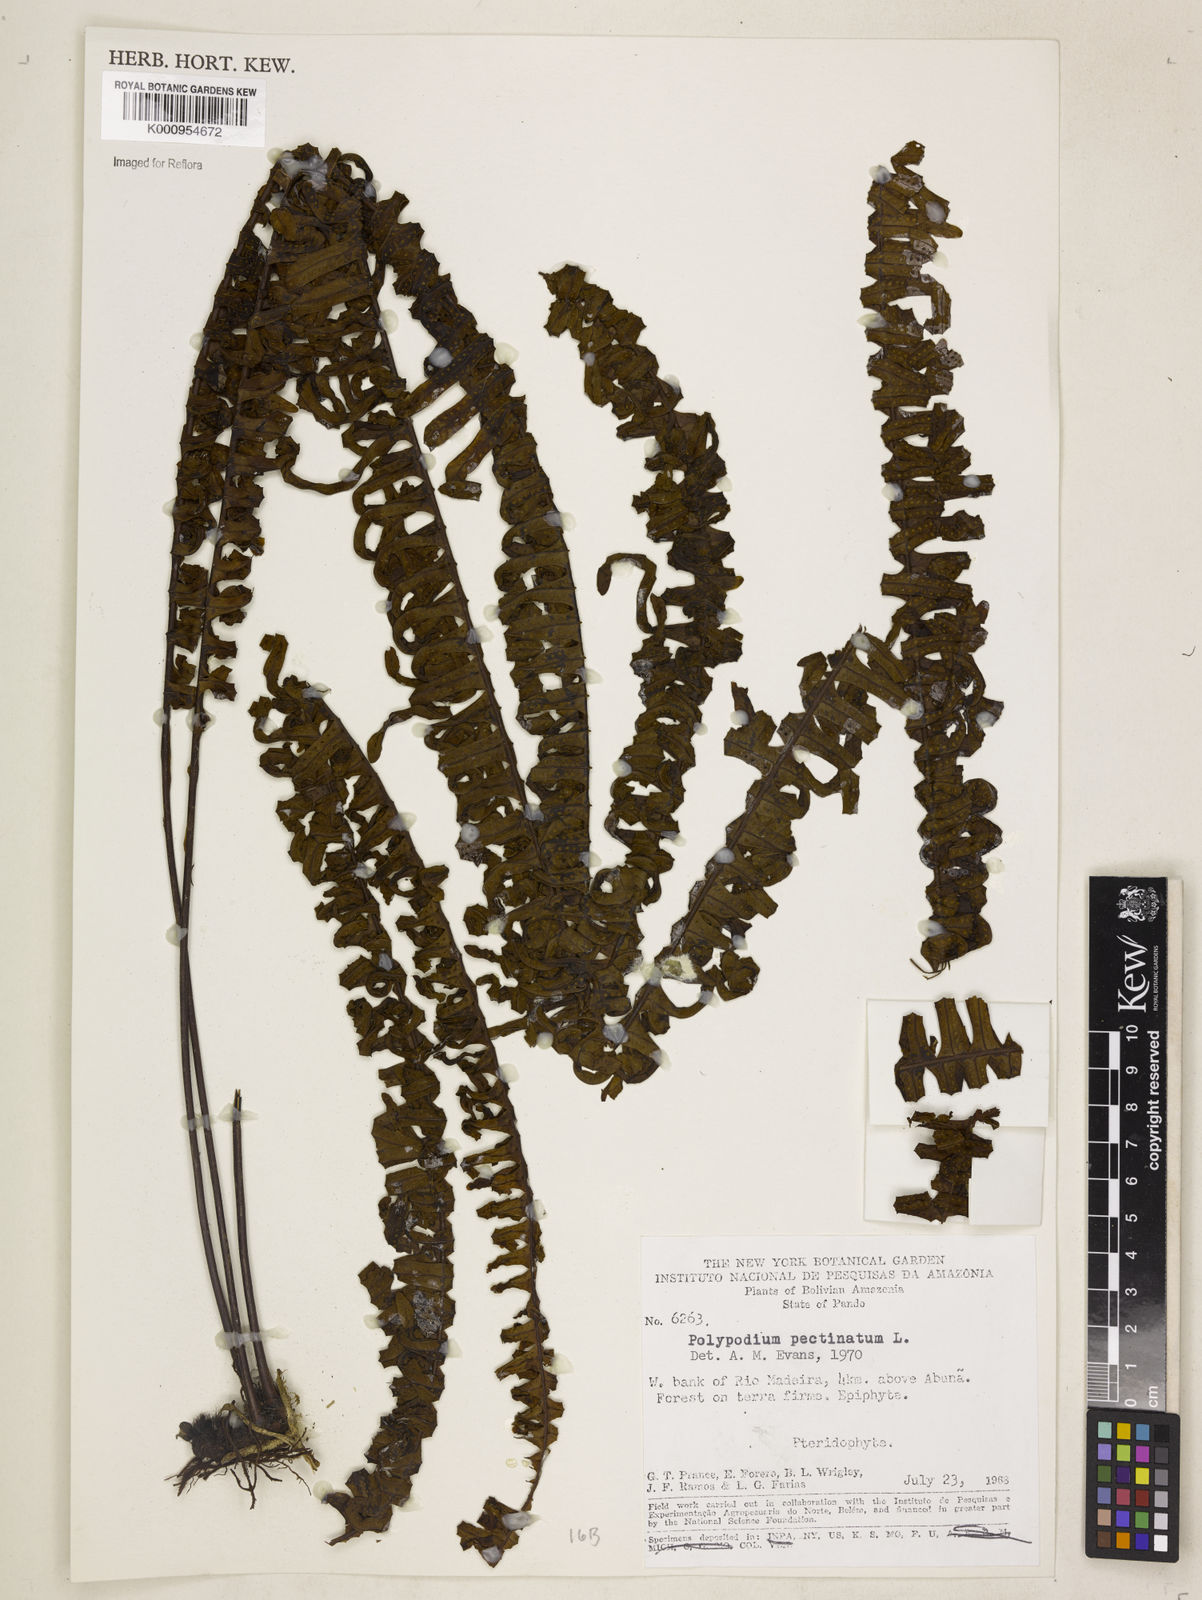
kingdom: Plantae
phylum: Tracheophyta
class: Polypodiopsida
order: Polypodiales
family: Polypodiaceae
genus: Pecluma
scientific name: Pecluma pectinata
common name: Msasa fern
